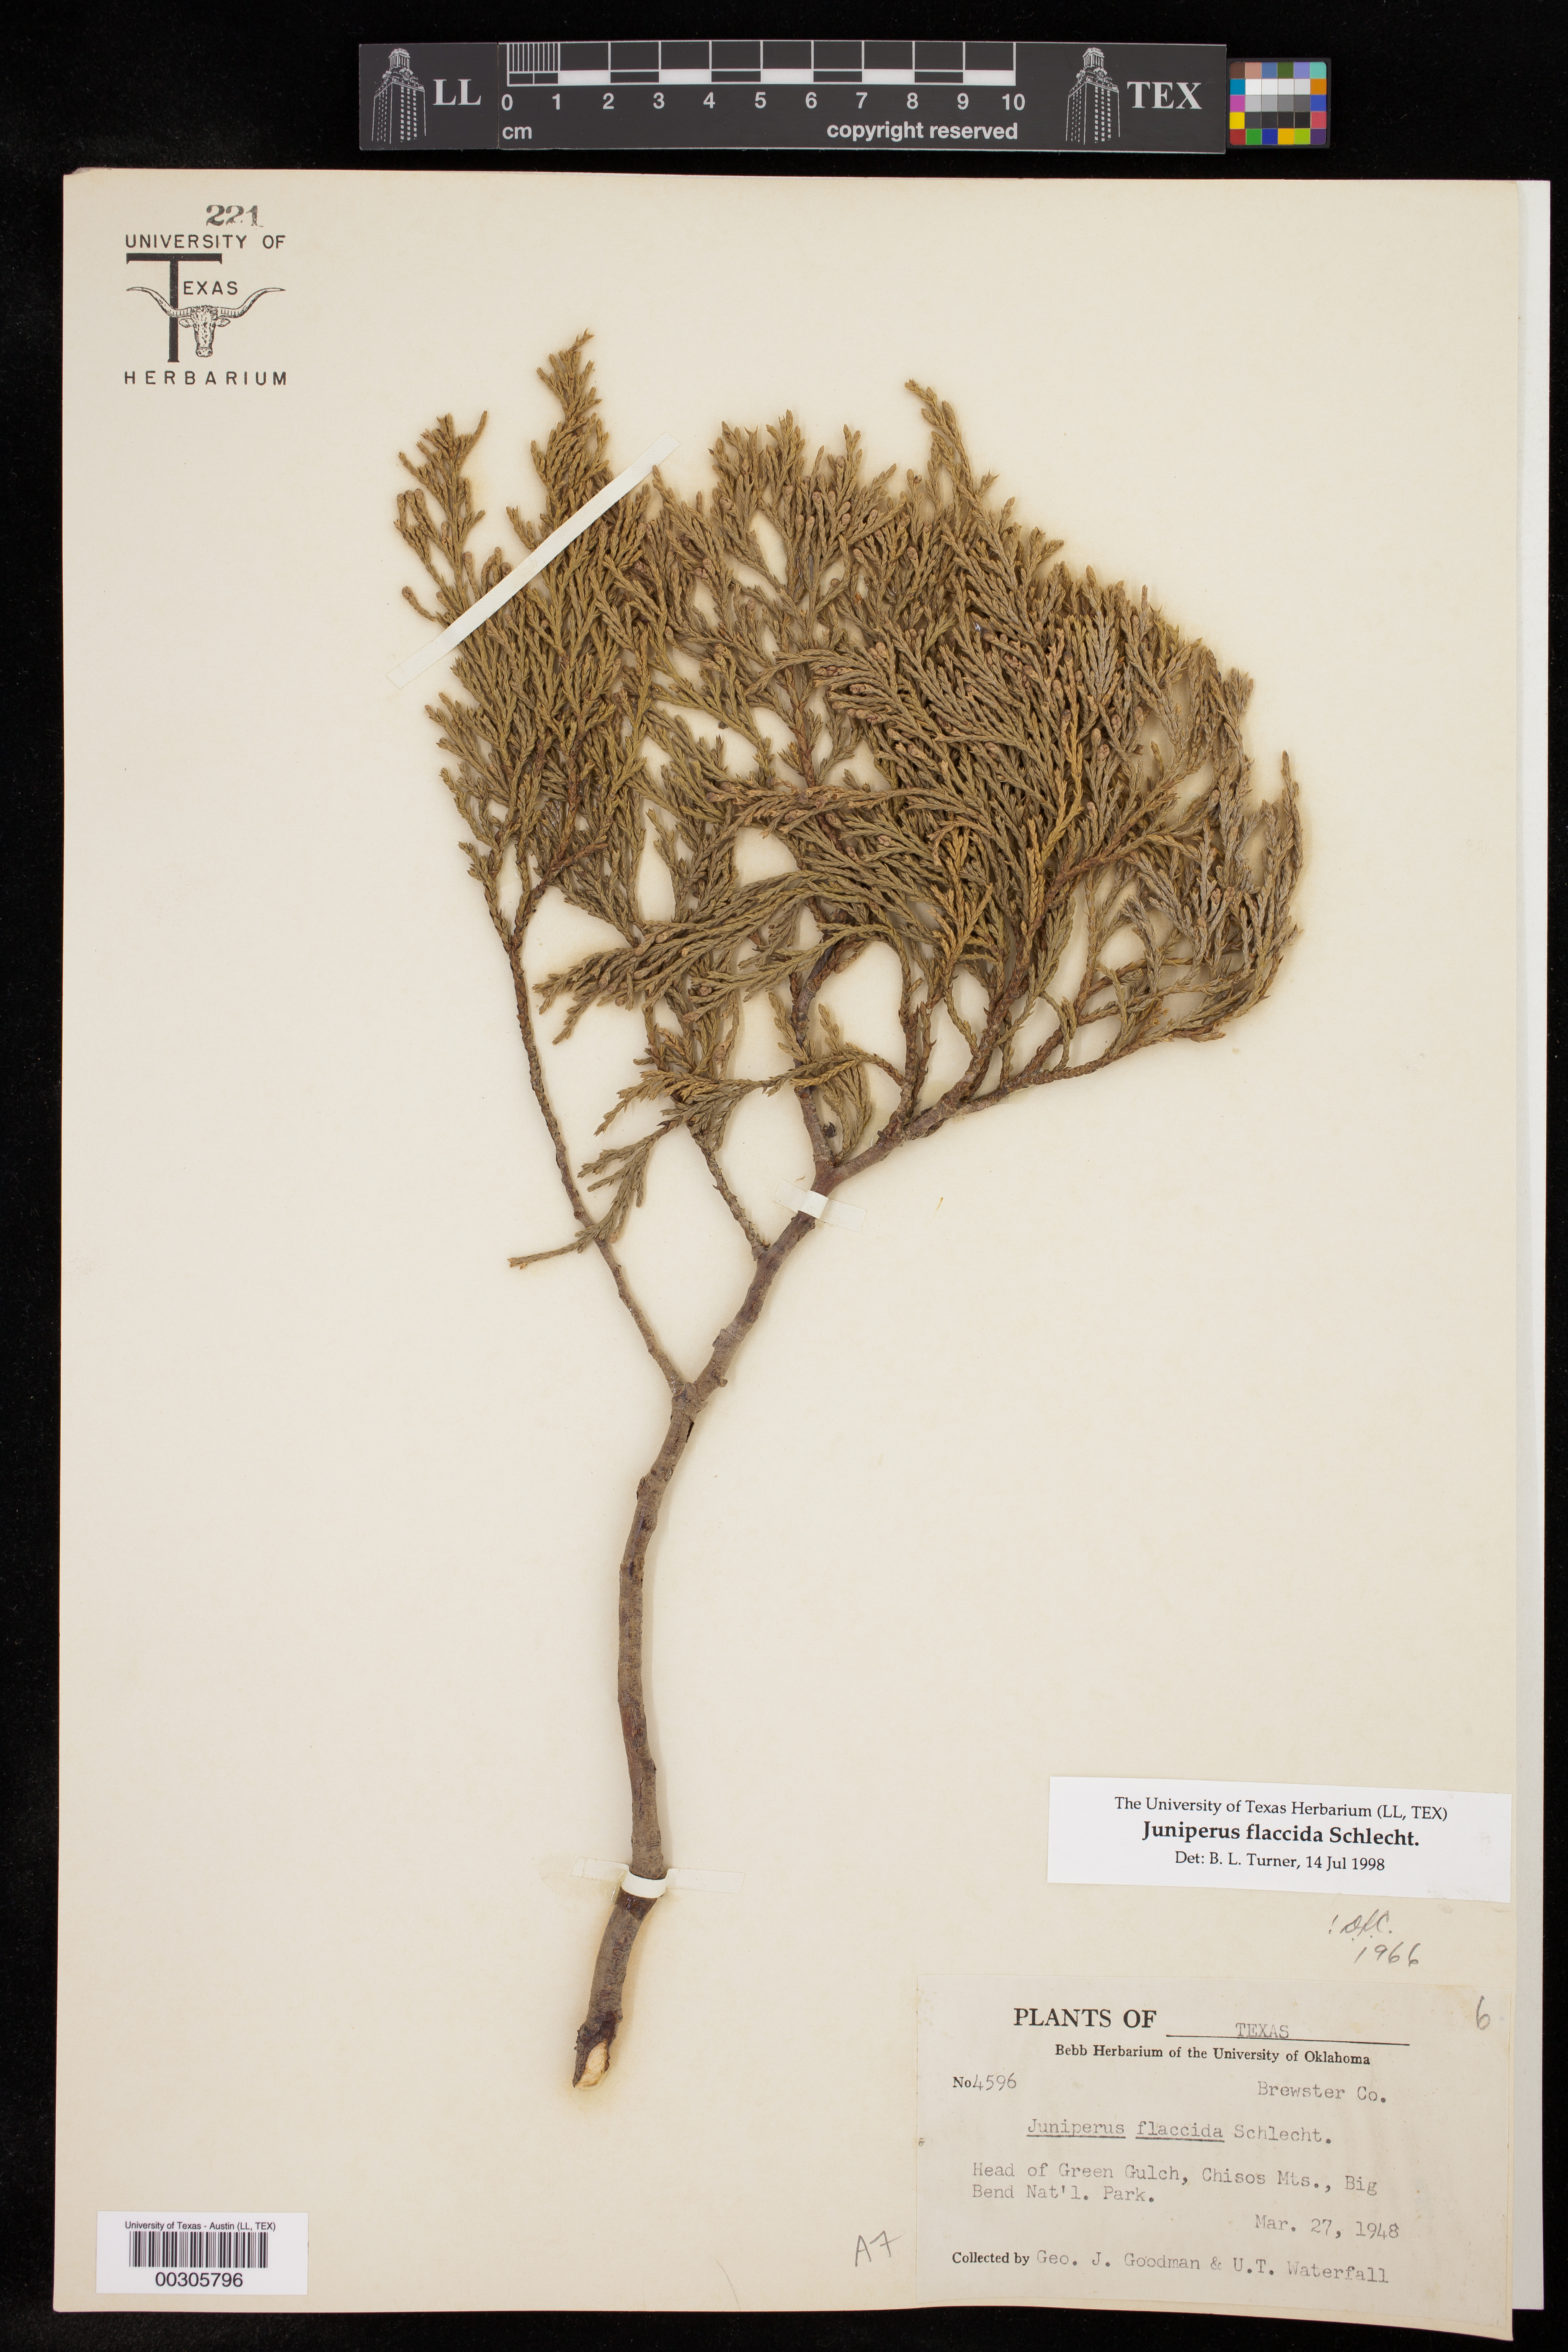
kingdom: Plantae
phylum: Tracheophyta
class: Pinopsida
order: Pinales
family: Cupressaceae
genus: Juniperus
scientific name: Juniperus flaccida
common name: Drooping juniper
